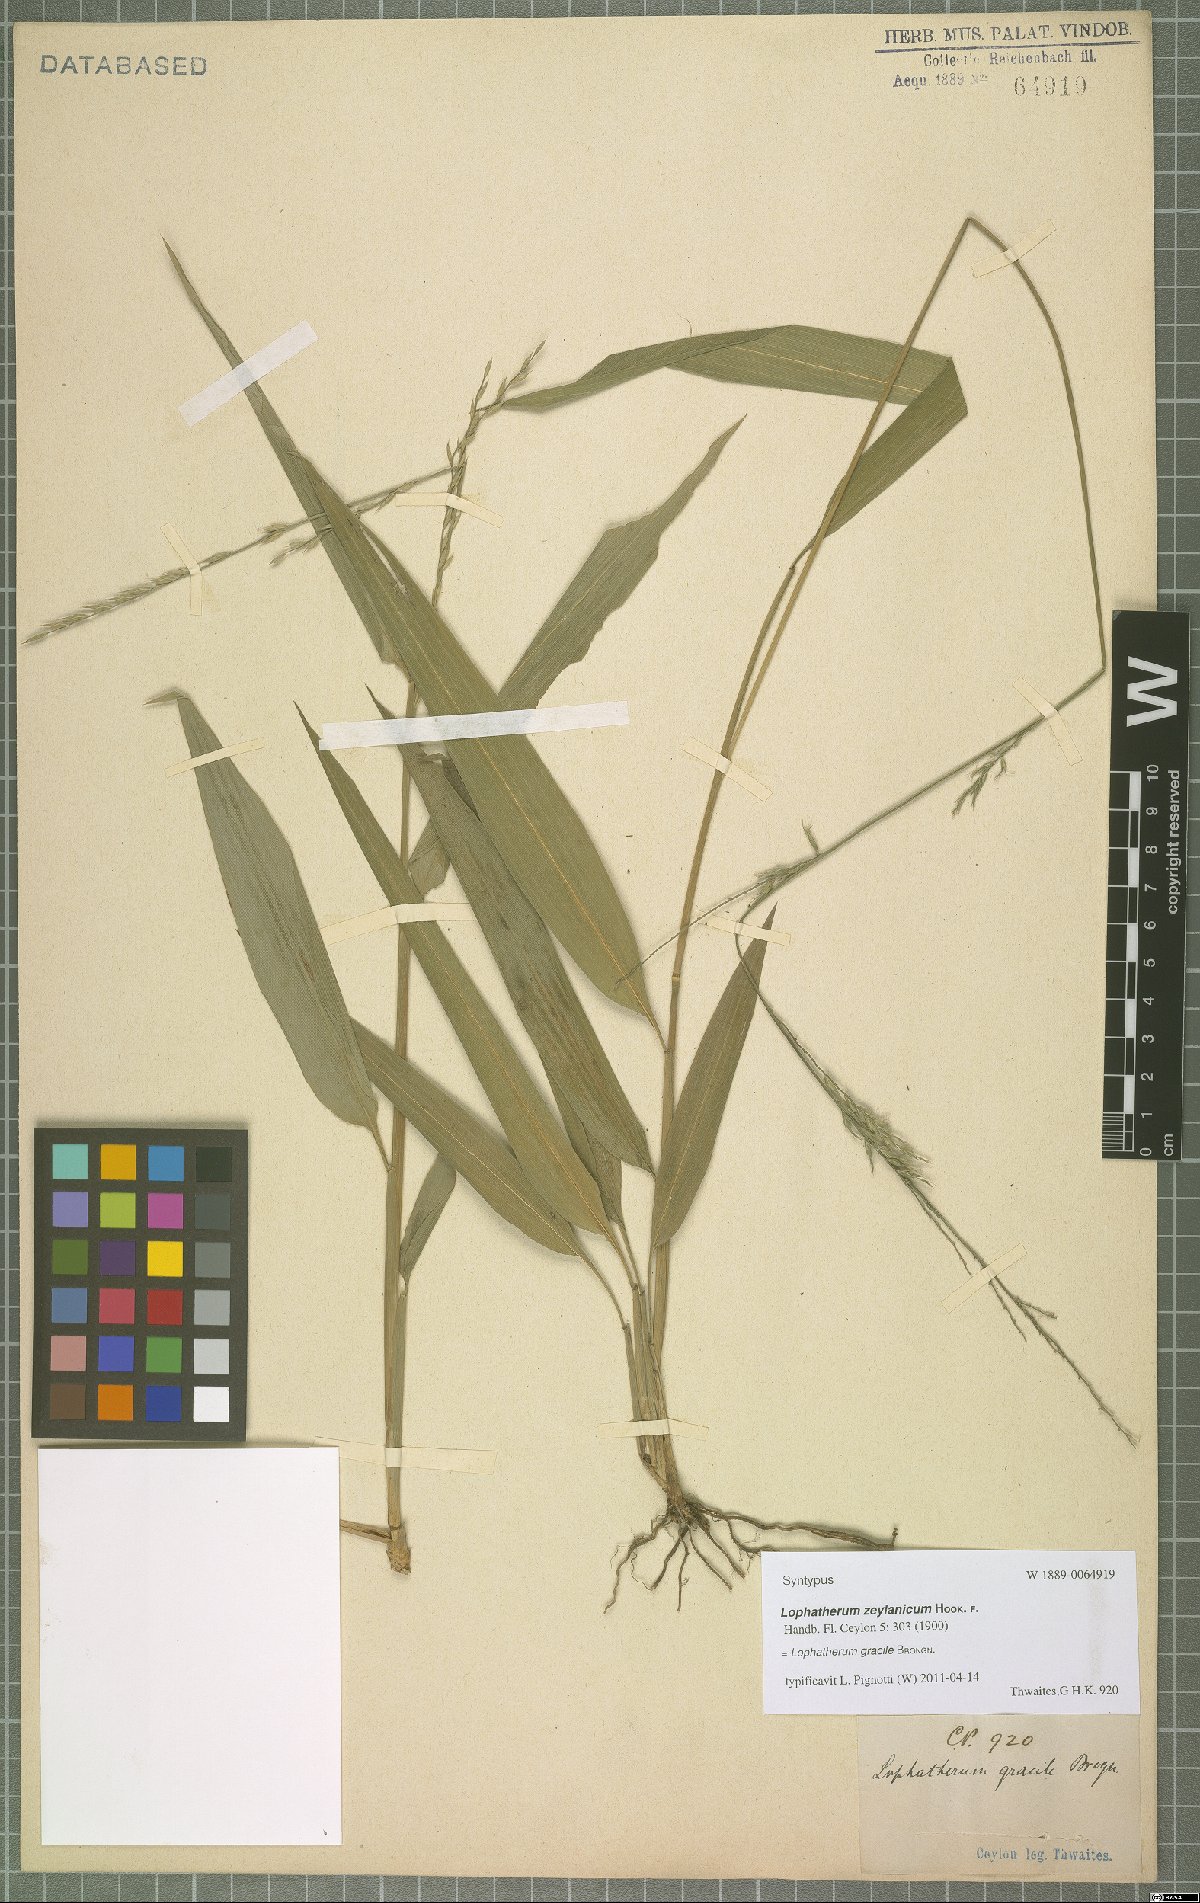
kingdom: Plantae
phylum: Tracheophyta
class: Liliopsida
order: Poales
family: Poaceae
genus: Lophatherum
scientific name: Lophatherum gracile
